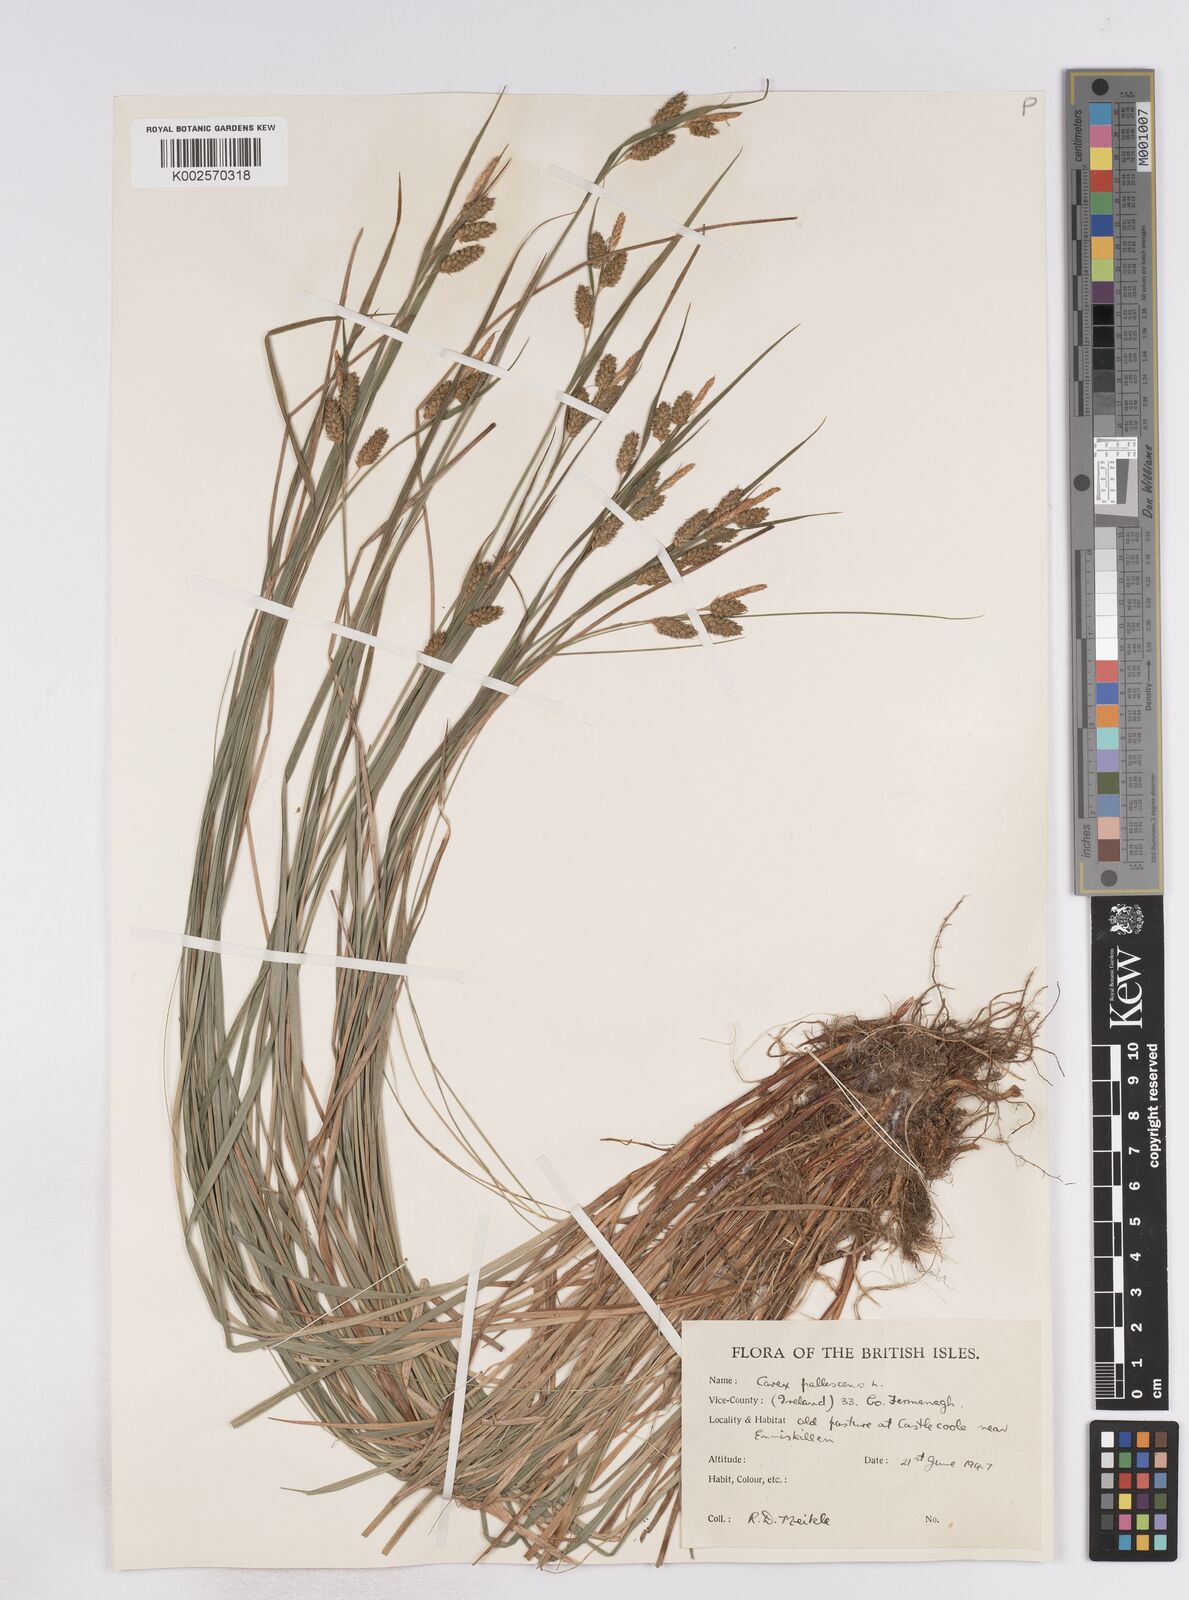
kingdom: Plantae
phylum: Tracheophyta
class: Liliopsida
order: Poales
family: Cyperaceae
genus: Carex
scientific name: Carex pallescens
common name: Pale sedge
